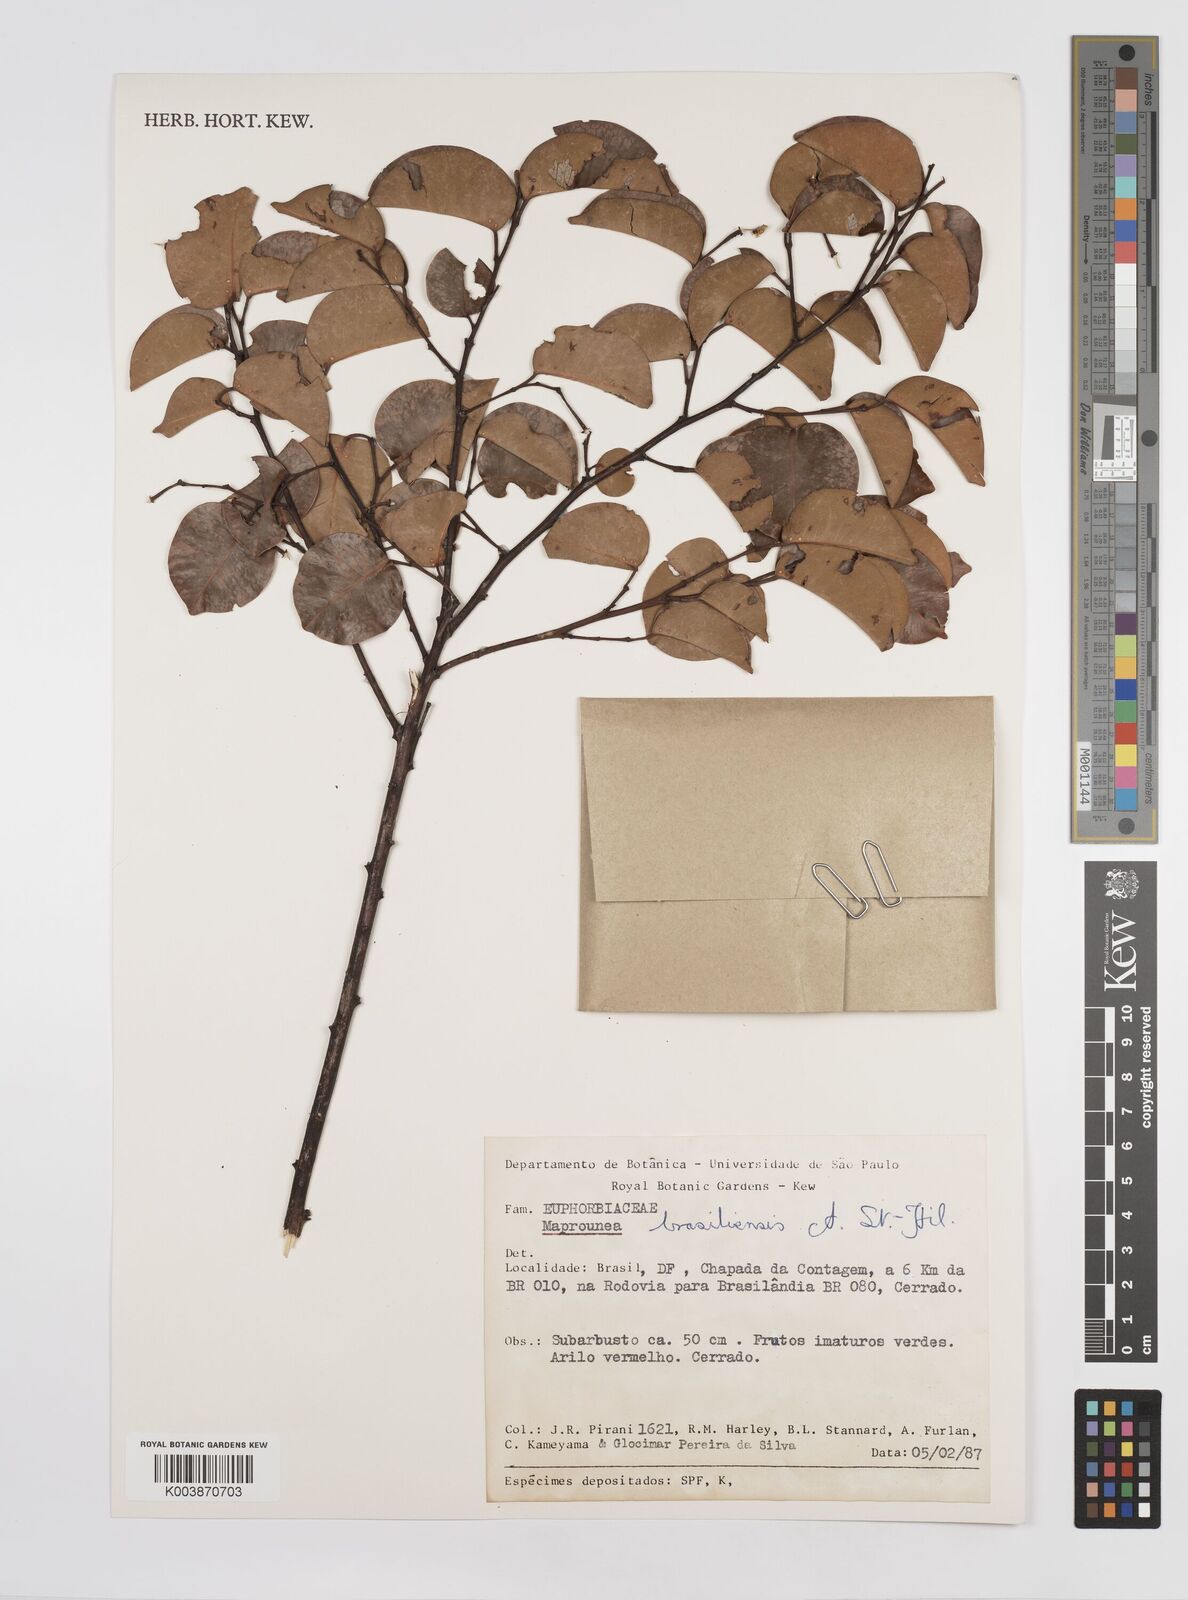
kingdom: Plantae
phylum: Tracheophyta
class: Magnoliopsida
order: Malpighiales
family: Euphorbiaceae
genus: Maprounea
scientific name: Maprounea brasiliensis
